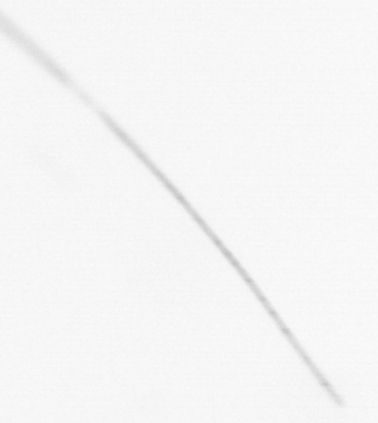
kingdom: Chromista
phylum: Ochrophyta
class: Bacillariophyceae
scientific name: Bacillariophyceae
